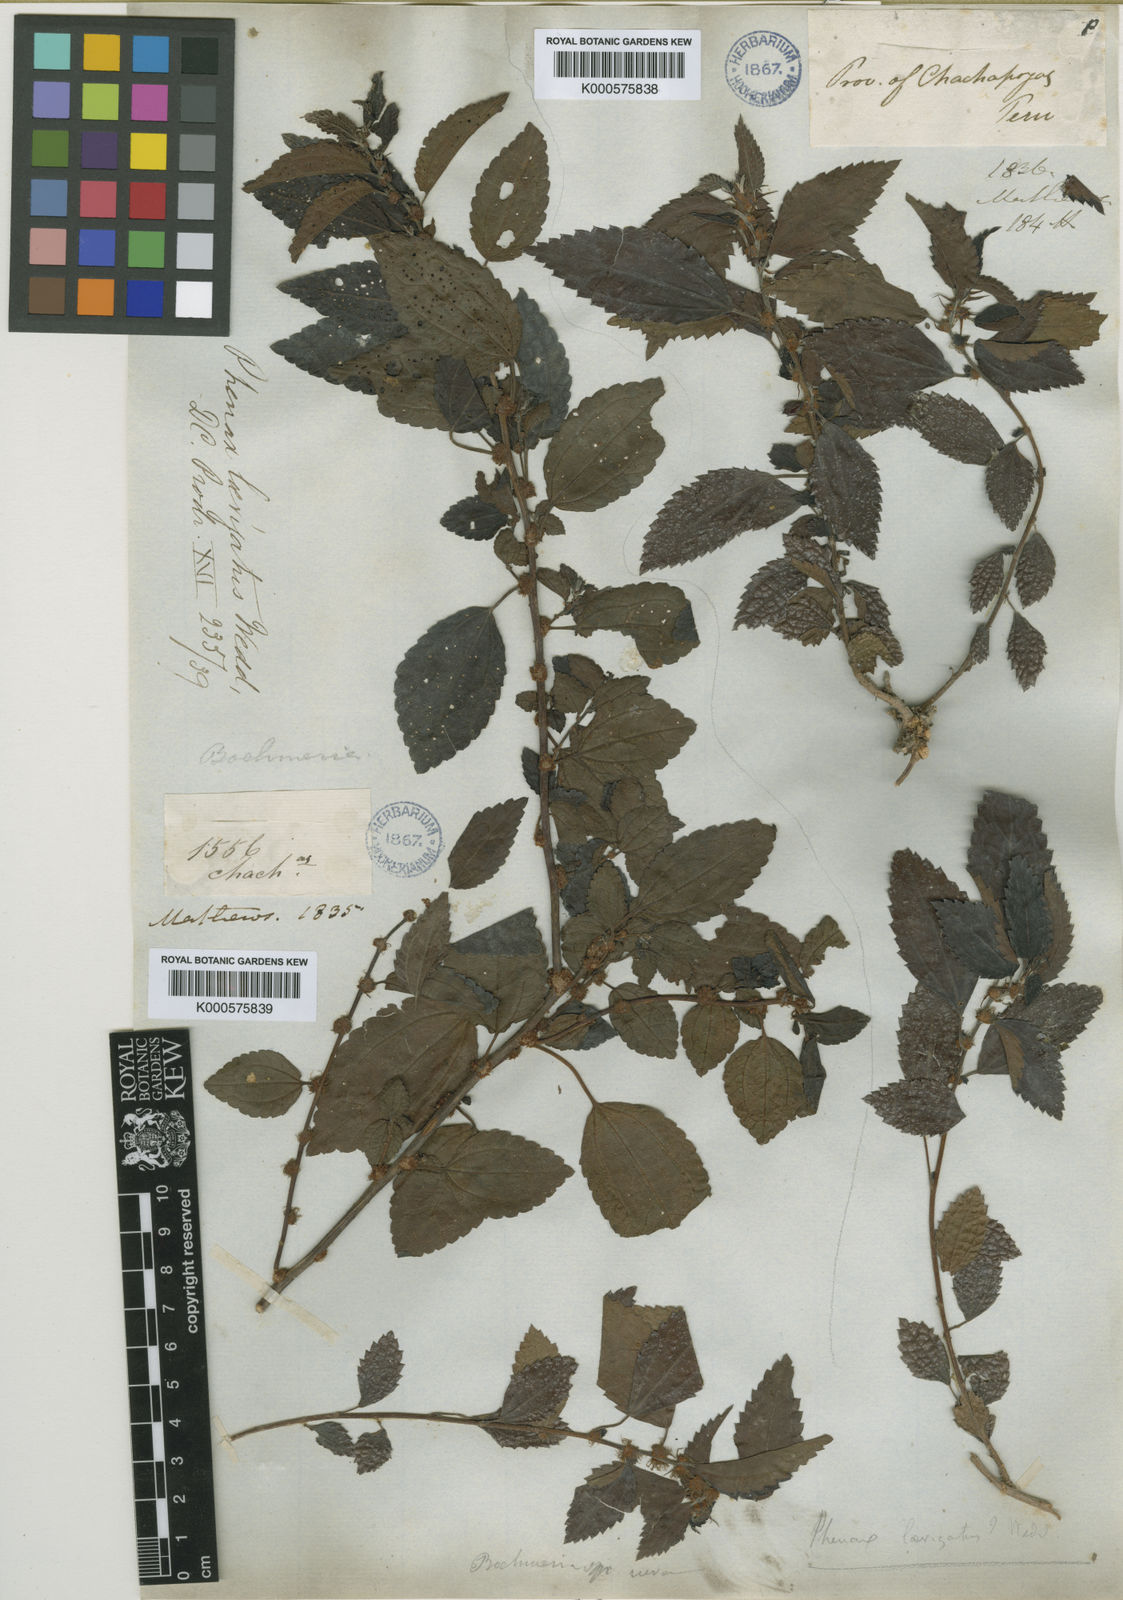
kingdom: Plantae
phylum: Tracheophyta
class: Magnoliopsida
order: Rosales
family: Urticaceae
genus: Phenax
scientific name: Phenax laevigatus
